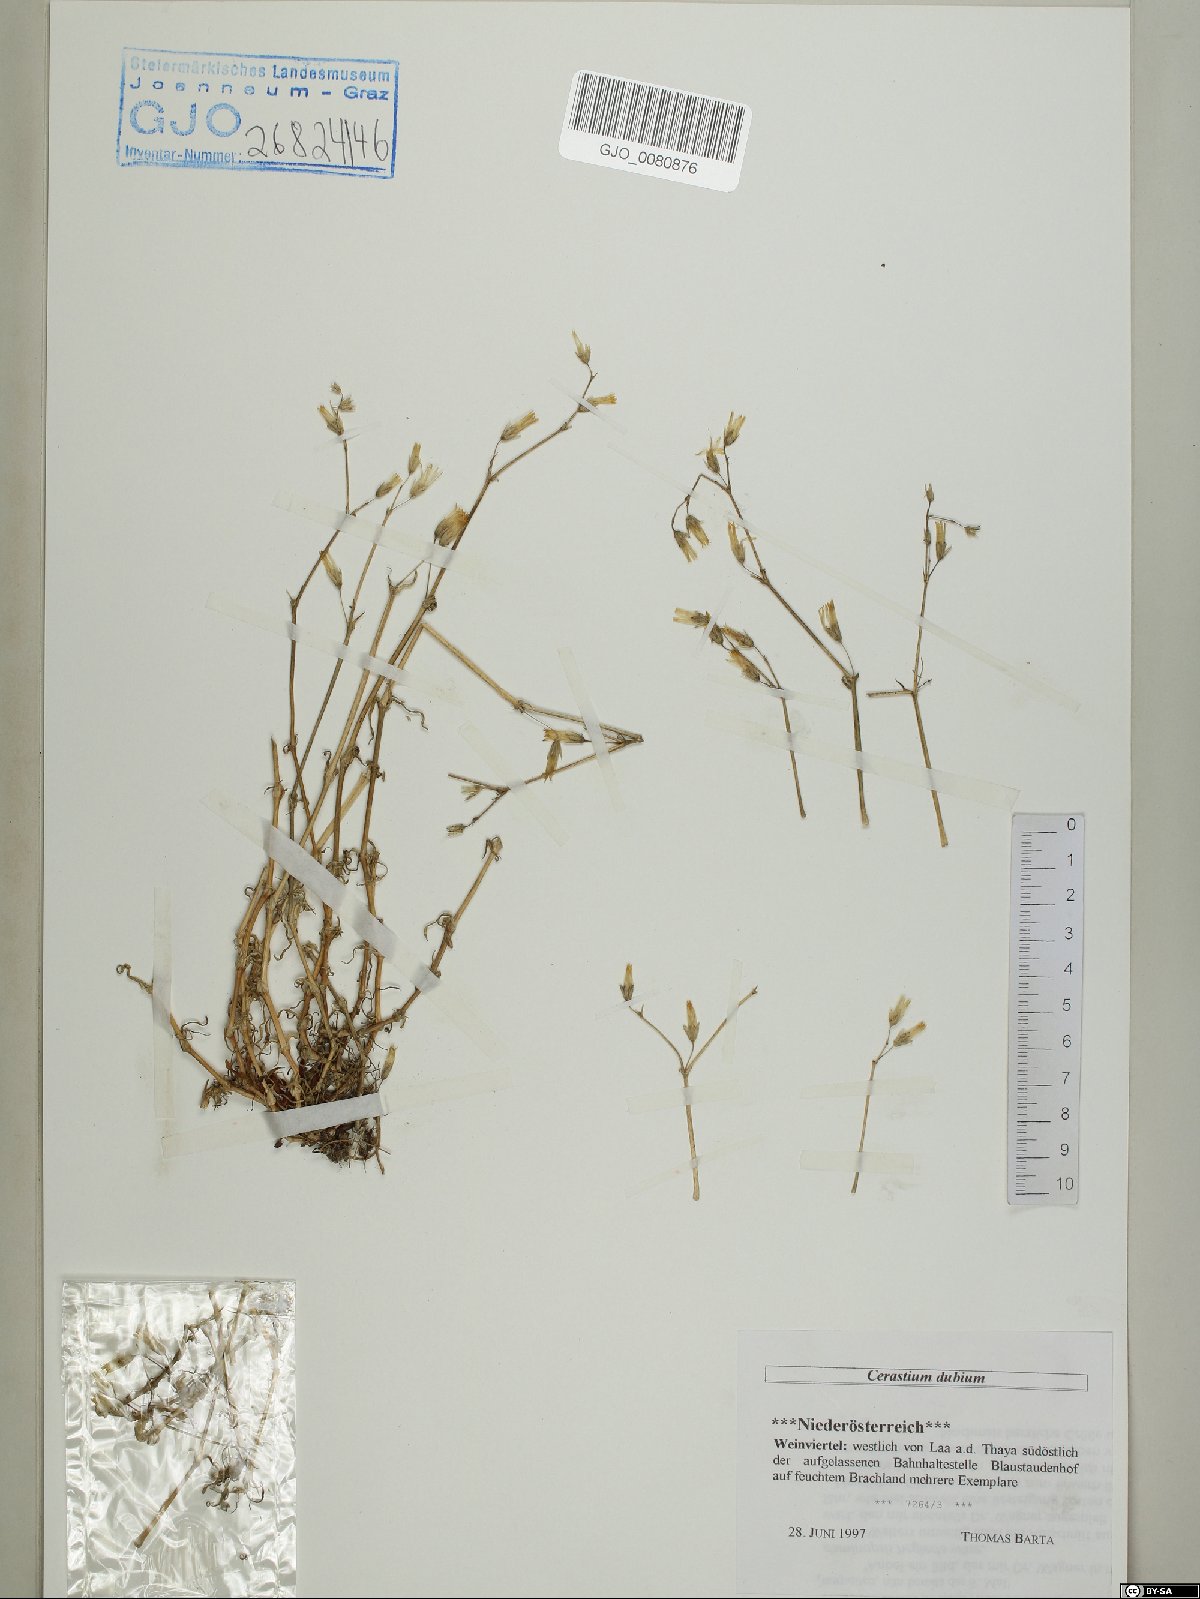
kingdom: Plantae
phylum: Tracheophyta
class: Magnoliopsida
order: Caryophyllales
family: Caryophyllaceae
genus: Dichodon
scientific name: Dichodon viscidum
